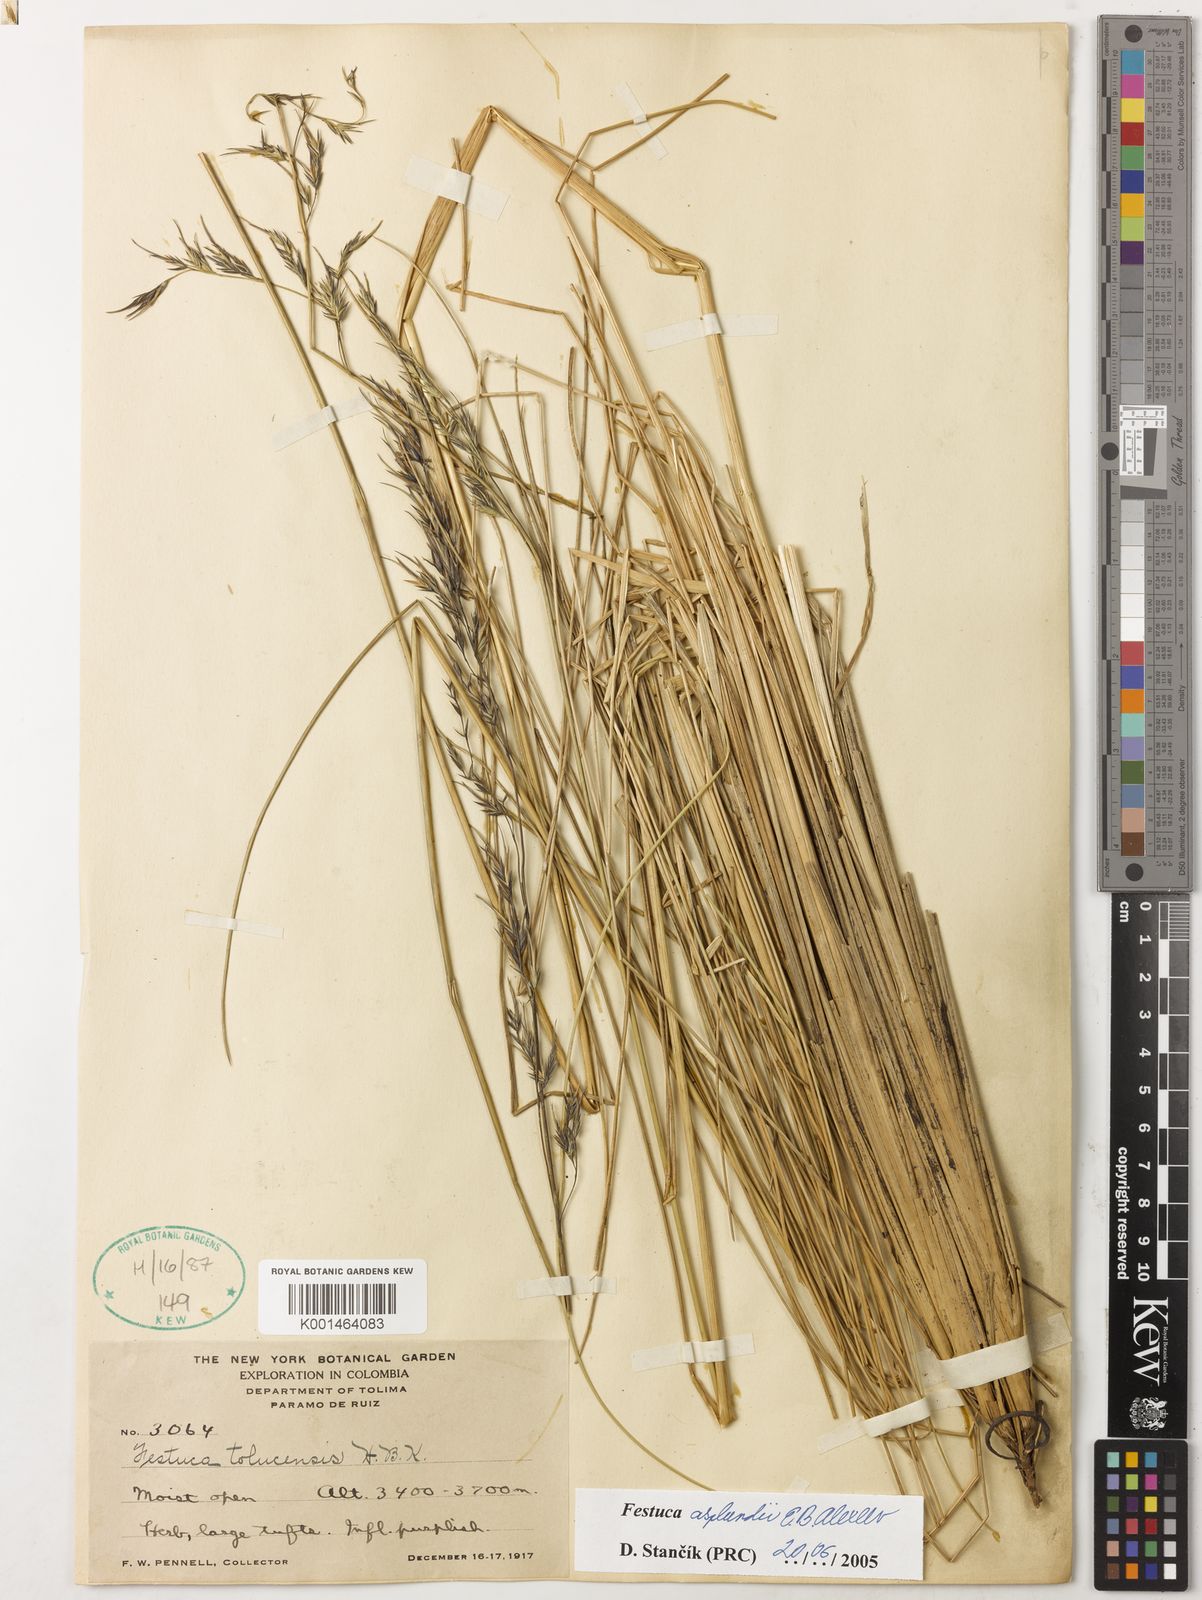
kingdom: Plantae
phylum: Tracheophyta
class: Liliopsida
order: Poales
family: Poaceae
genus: Festuca
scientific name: Festuca asplundii
